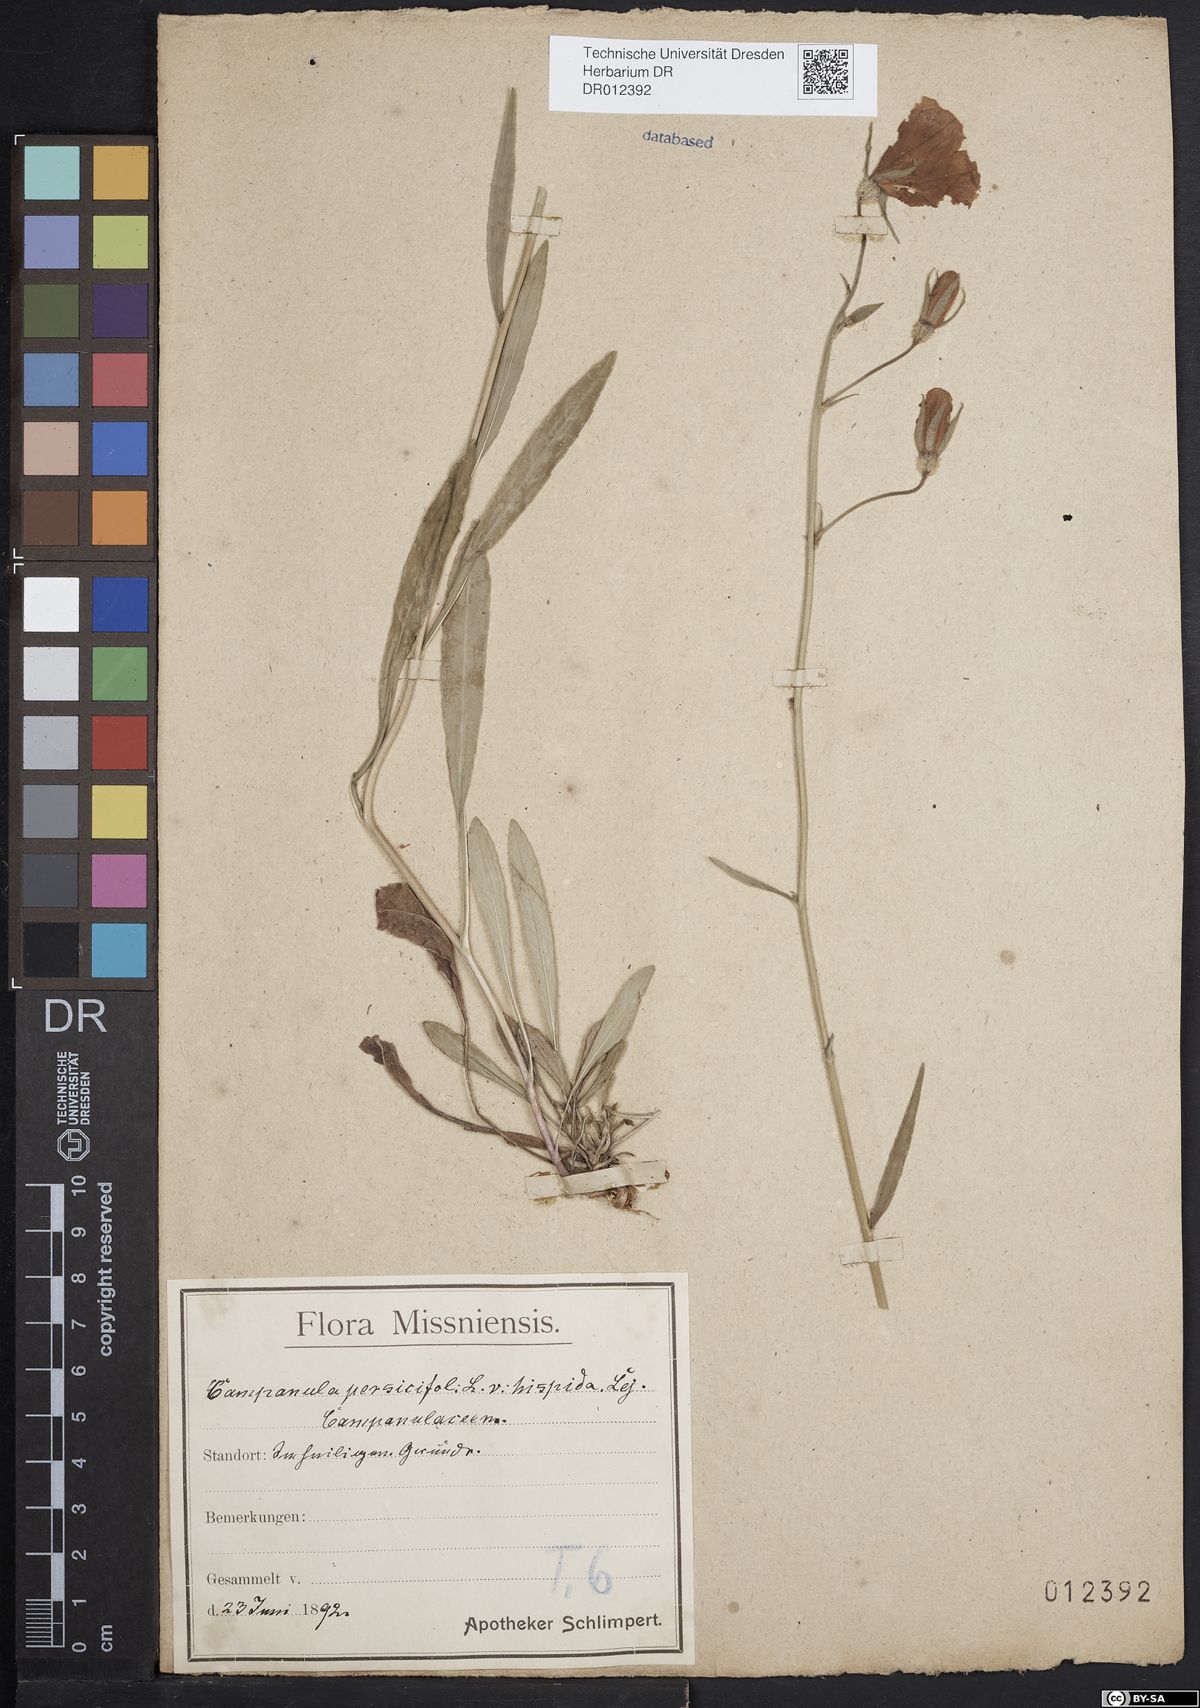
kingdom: Plantae
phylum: Tracheophyta
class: Magnoliopsida
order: Asterales
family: Campanulaceae
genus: Campanula
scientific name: Campanula persicifolia
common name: Peach-leaved bellflower
